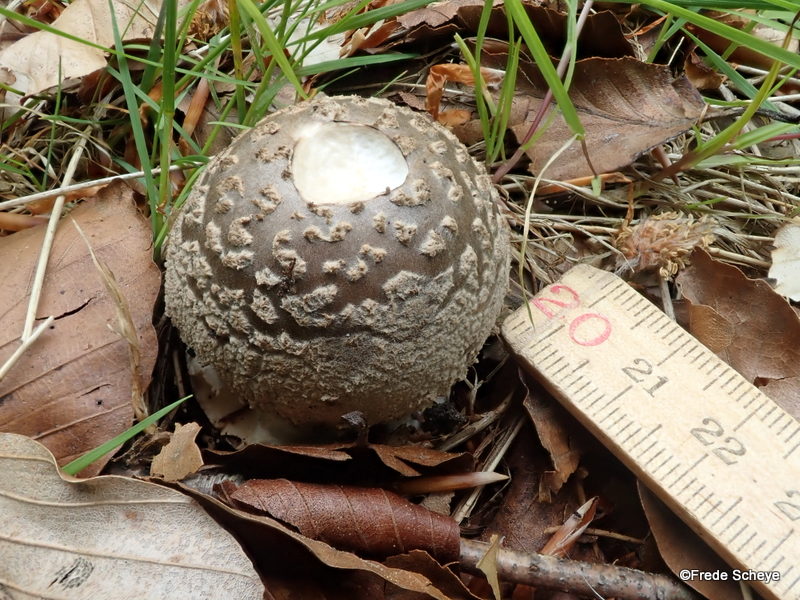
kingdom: Fungi
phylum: Basidiomycota
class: Agaricomycetes
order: Agaricales
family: Amanitaceae
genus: Amanita
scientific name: Amanita
